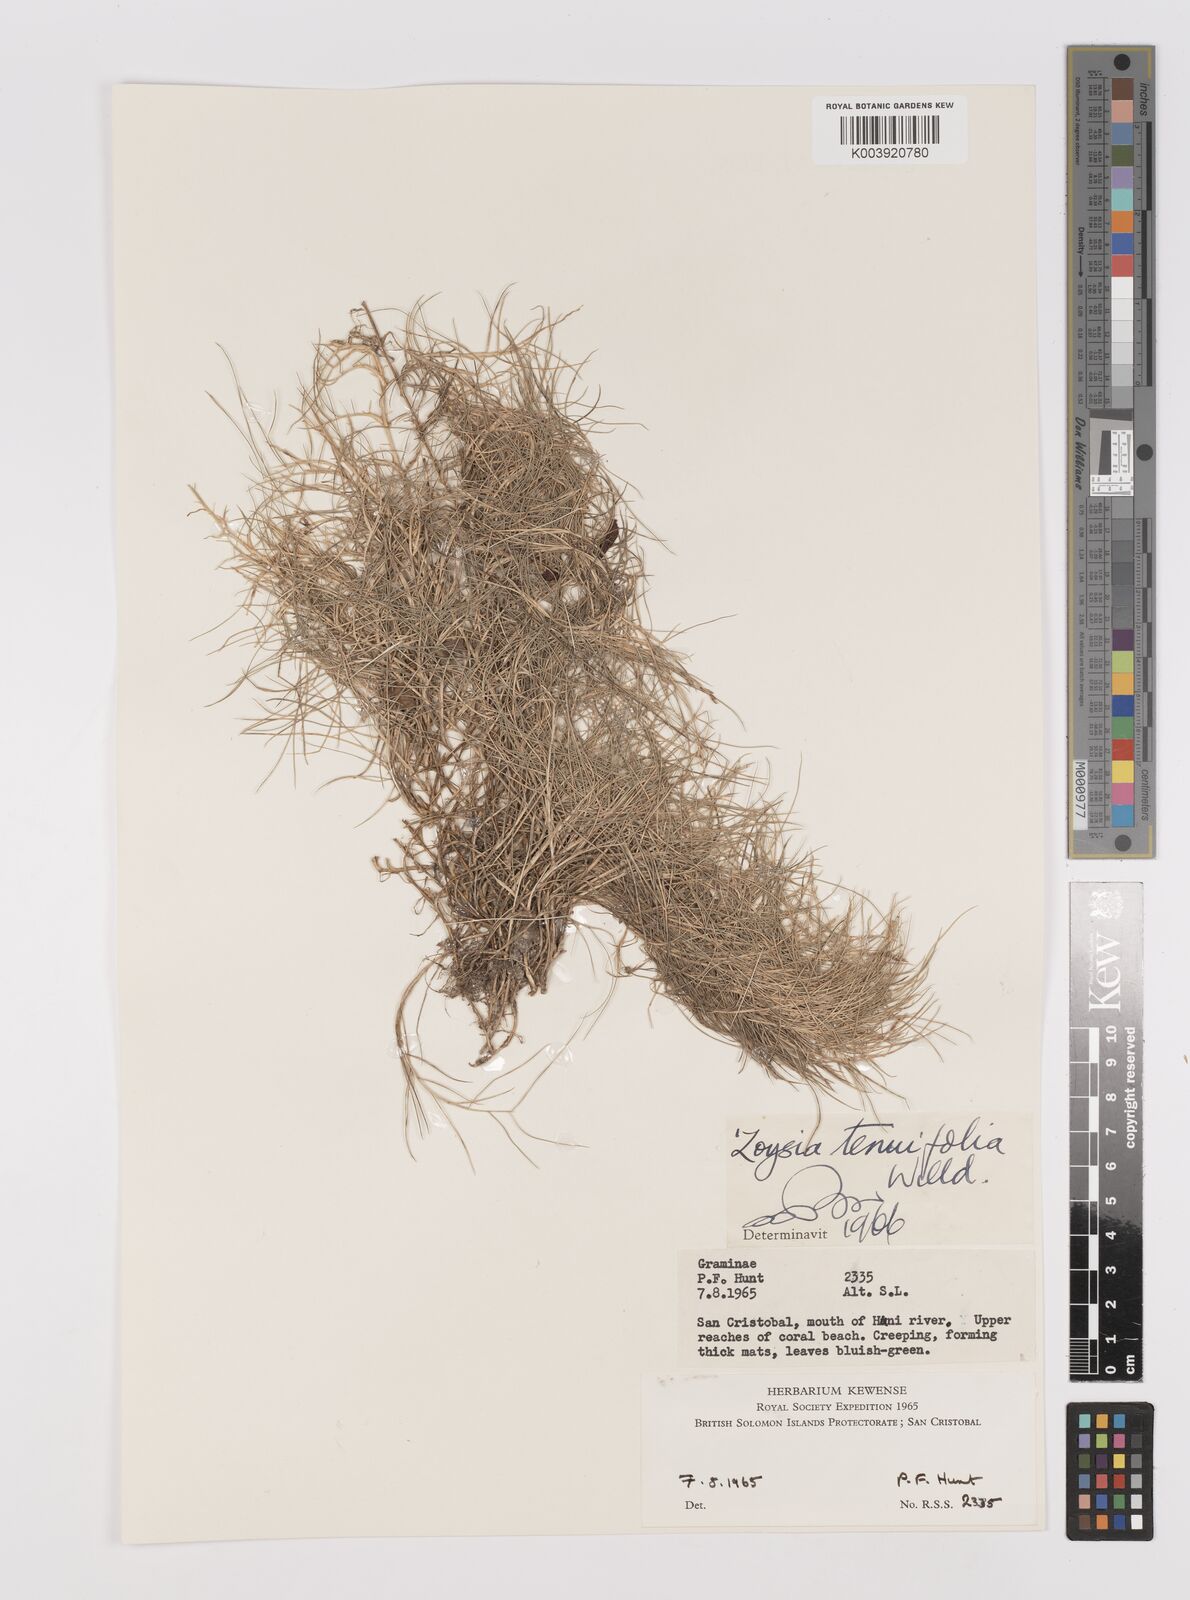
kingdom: Plantae
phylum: Tracheophyta
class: Liliopsida
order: Poales
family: Poaceae
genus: Zoysia
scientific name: Zoysia matrella
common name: Manila grass
